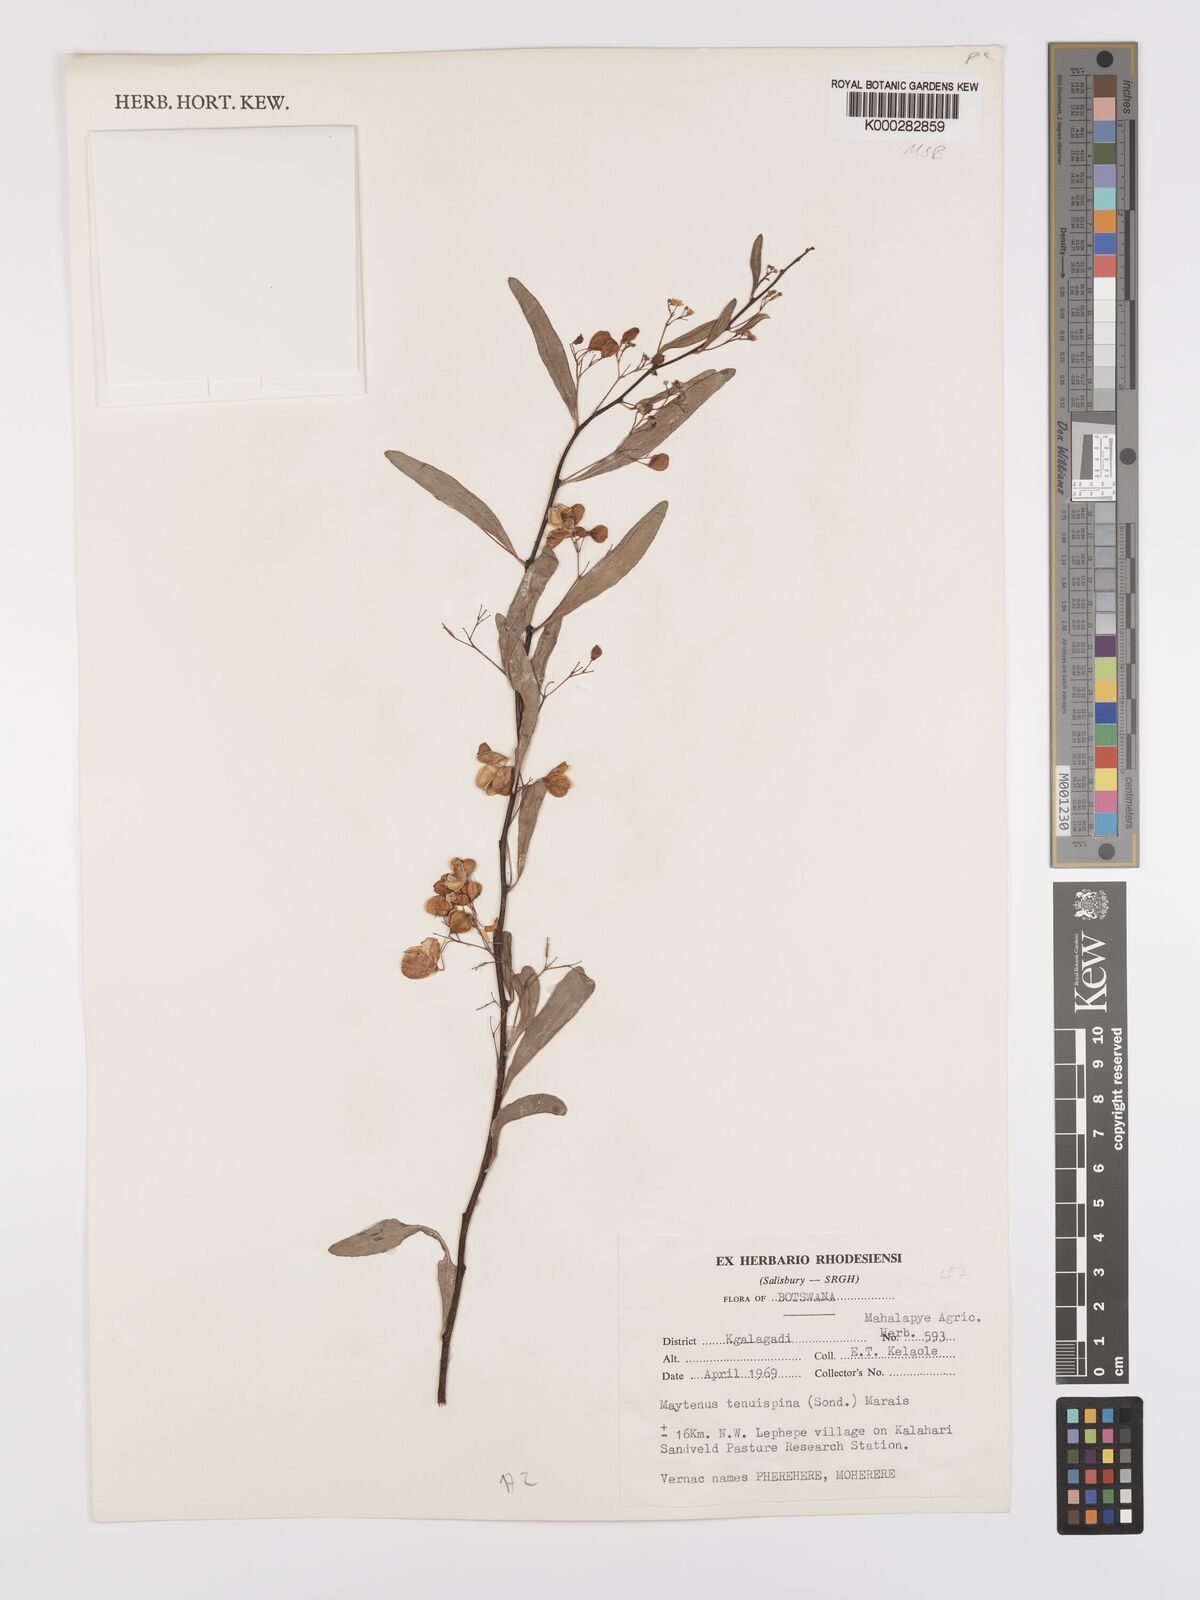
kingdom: Plantae
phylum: Tracheophyta
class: Magnoliopsida
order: Celastrales
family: Celastraceae
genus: Gymnosporia
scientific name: Gymnosporia tenuispina
